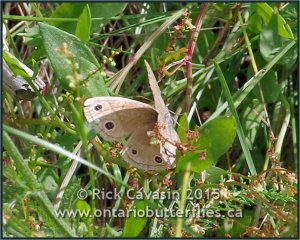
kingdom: Animalia
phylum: Arthropoda
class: Insecta
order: Lepidoptera
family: Nymphalidae
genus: Euptychia
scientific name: Euptychia cymela
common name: Little Wood Satyr
